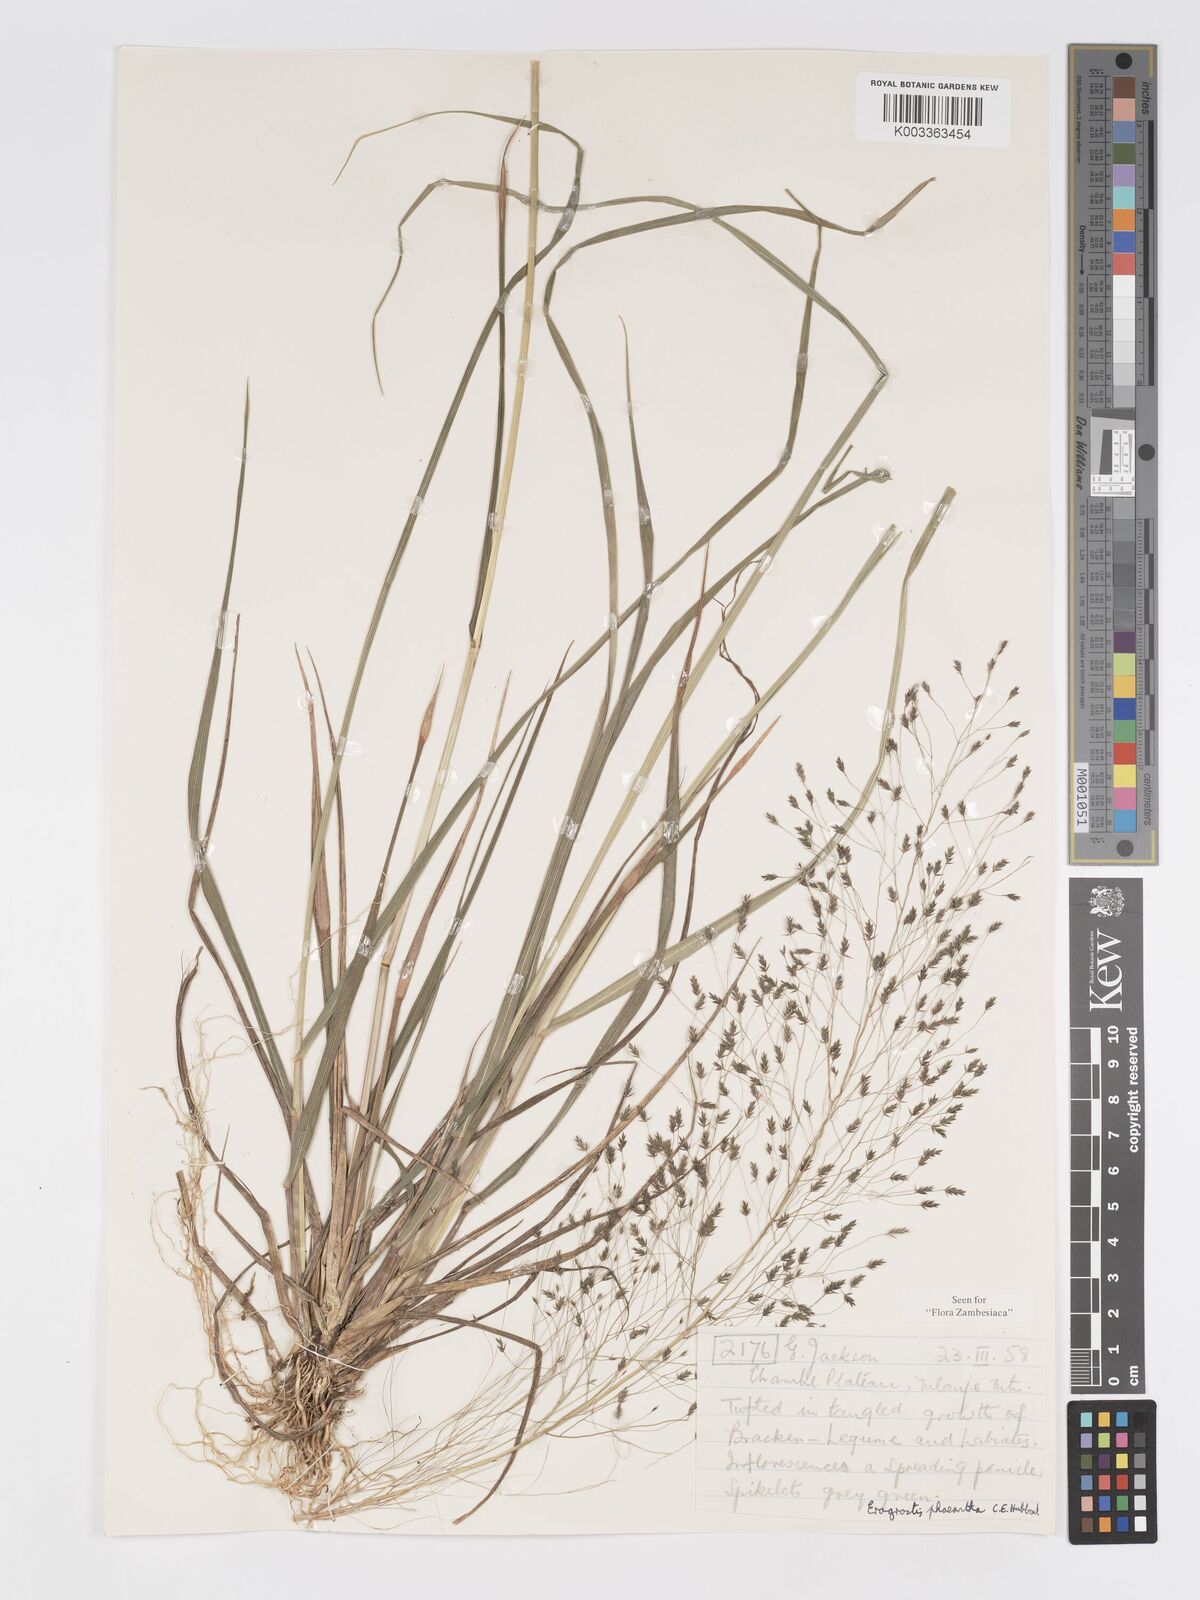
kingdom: Plantae
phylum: Tracheophyta
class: Liliopsida
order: Poales
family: Poaceae
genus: Eragrostis
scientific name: Eragrostis homblei
